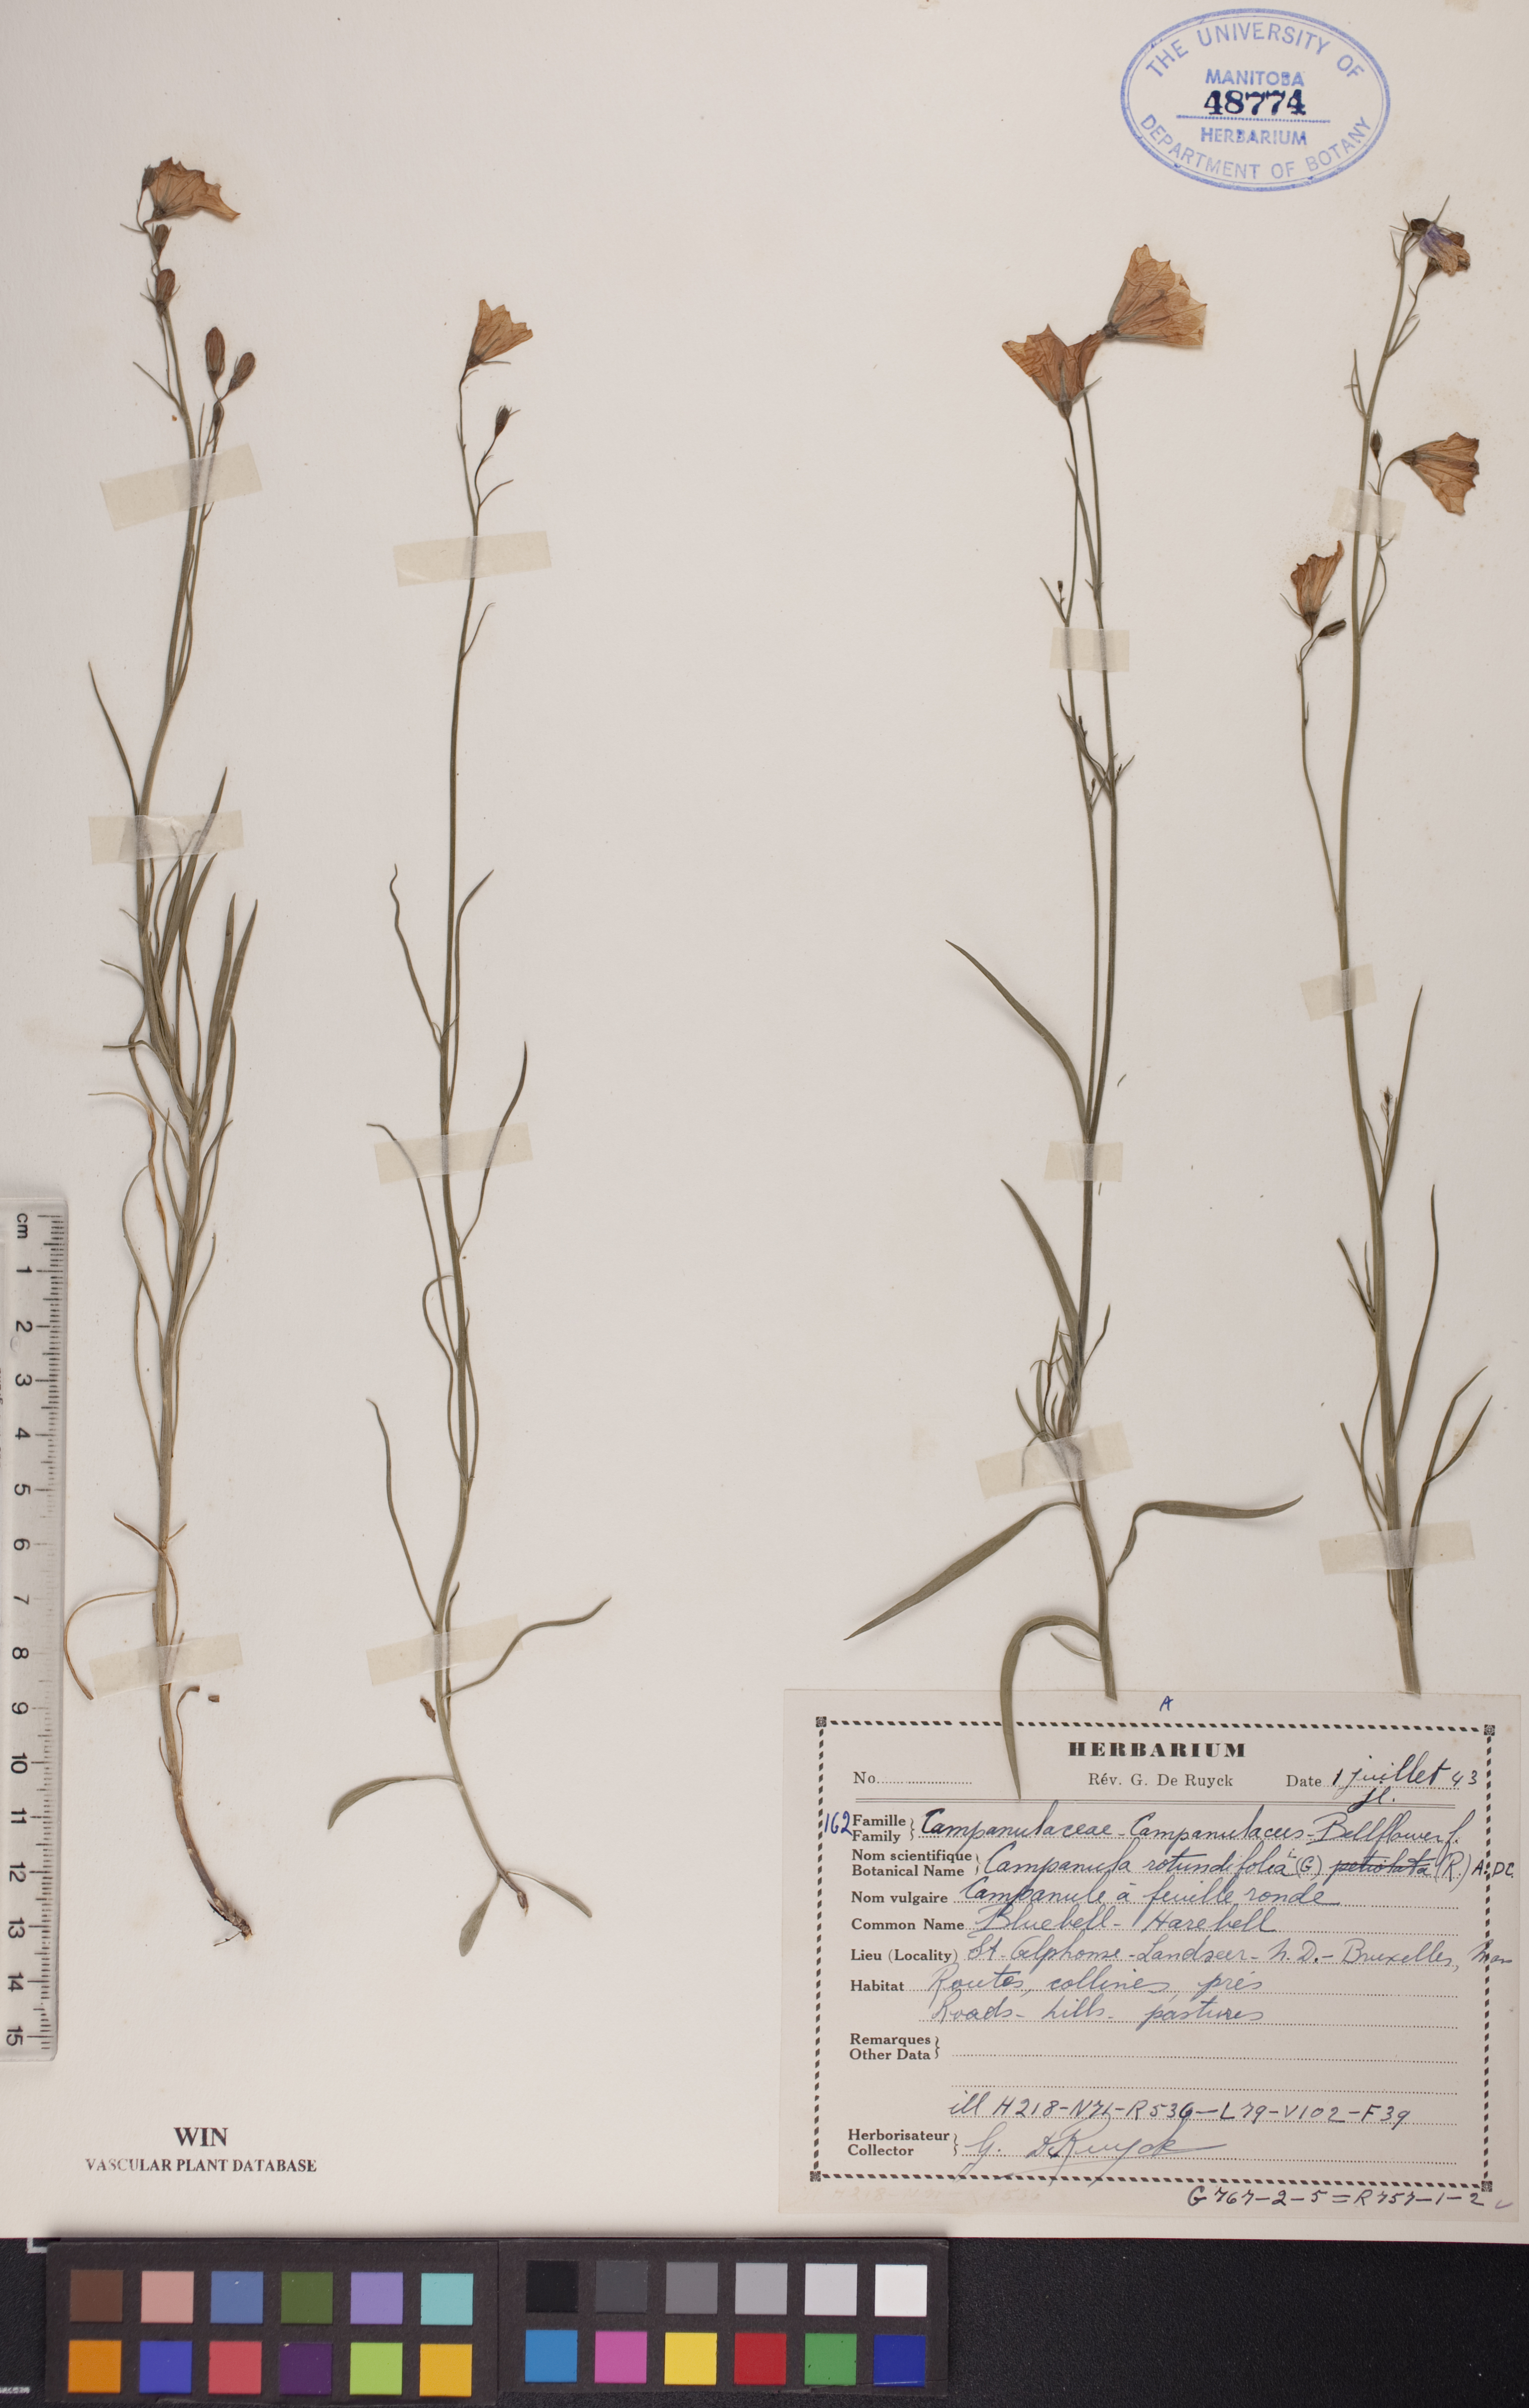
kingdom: Plantae
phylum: Tracheophyta
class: Magnoliopsida
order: Asterales
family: Campanulaceae
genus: Campanula
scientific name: Campanula rotundifolia
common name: Harebell
